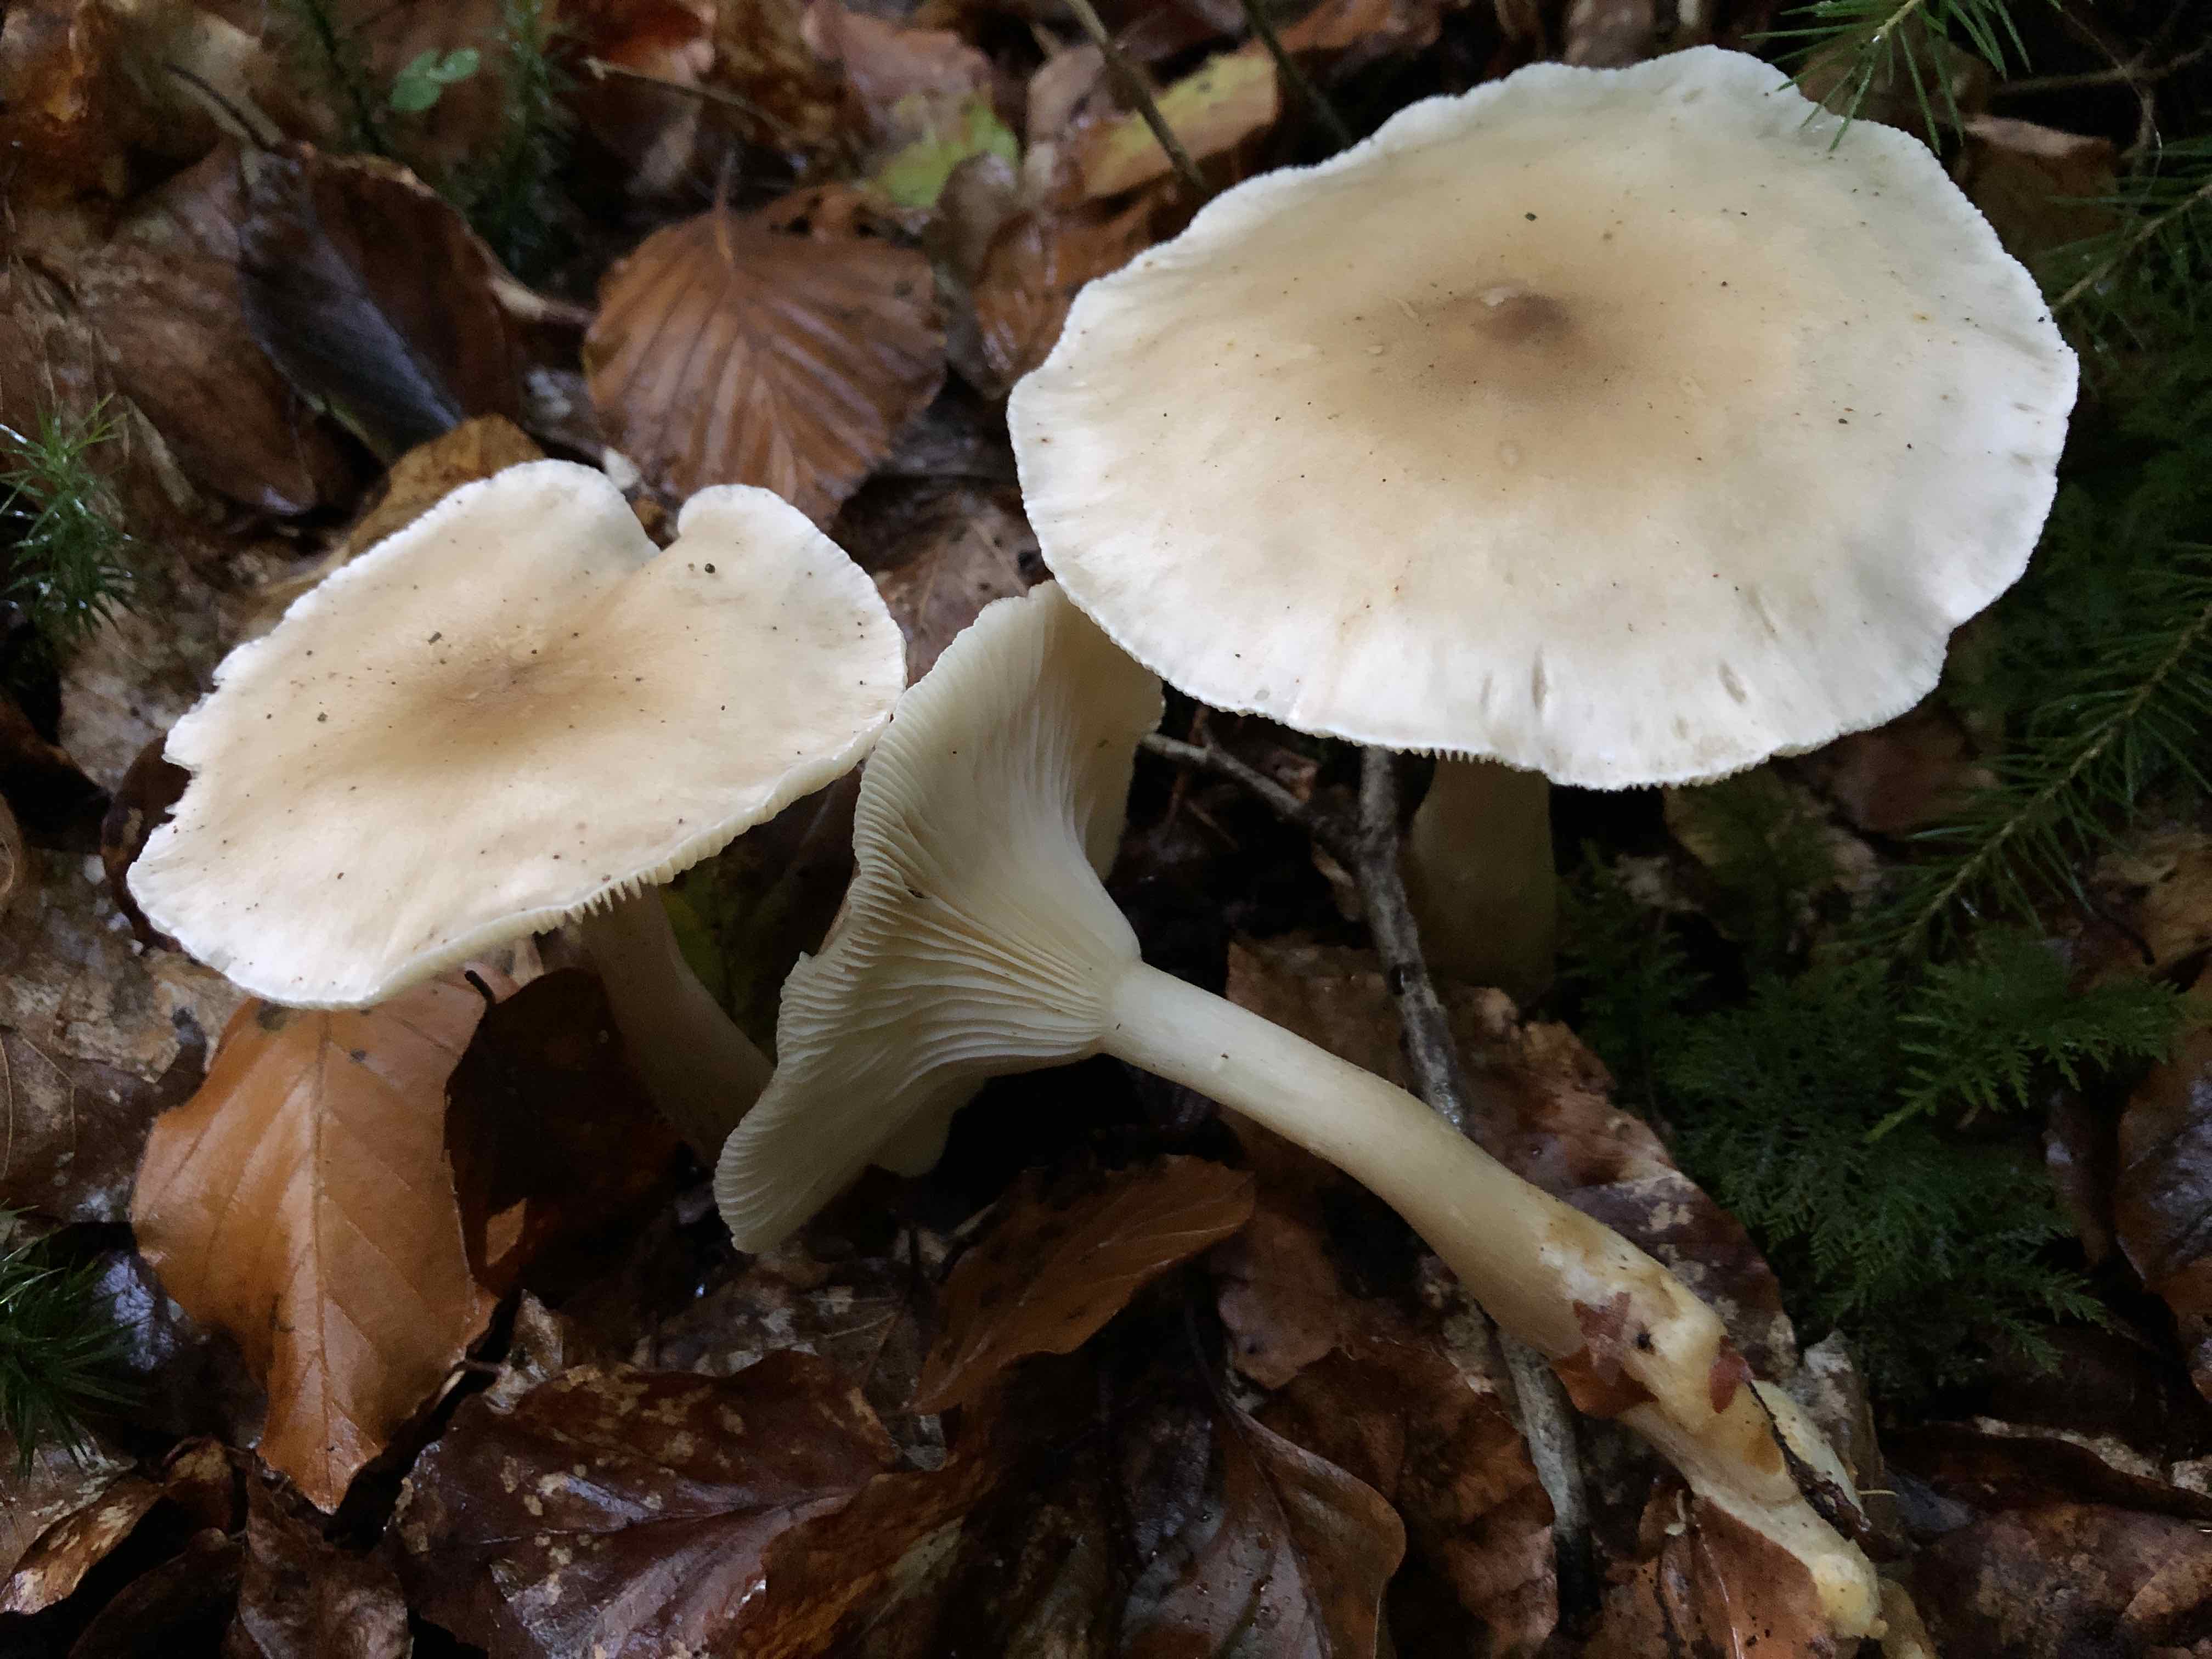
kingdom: Fungi
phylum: Basidiomycota
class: Agaricomycetes
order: Agaricales
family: Hygrophoraceae
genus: Ampulloclitocybe
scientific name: Ampulloclitocybe clavipes
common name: køllefod
